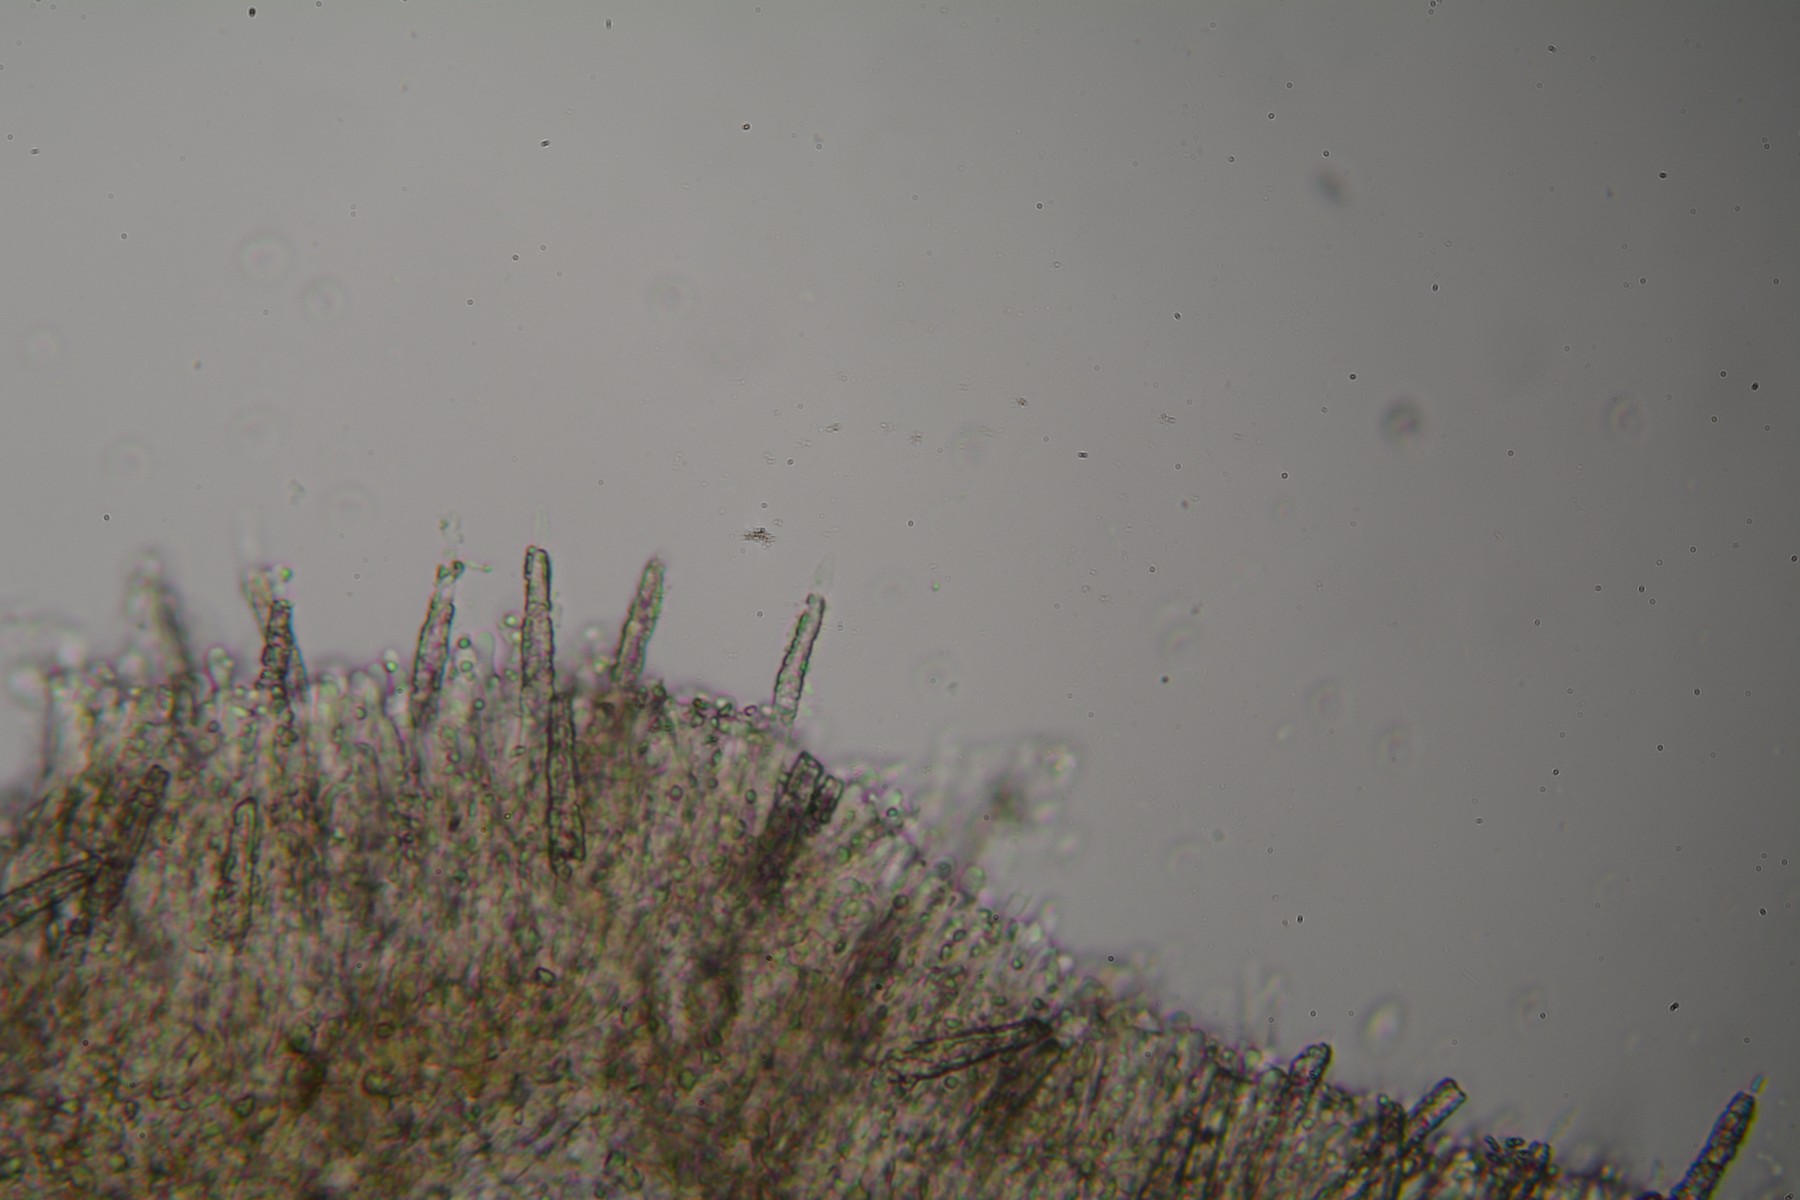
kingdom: Fungi
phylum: Basidiomycota
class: Agaricomycetes
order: Polyporales
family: Phanerochaetaceae
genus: Phanerochaete
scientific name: Phanerochaete velutina
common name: dunet randtråd
